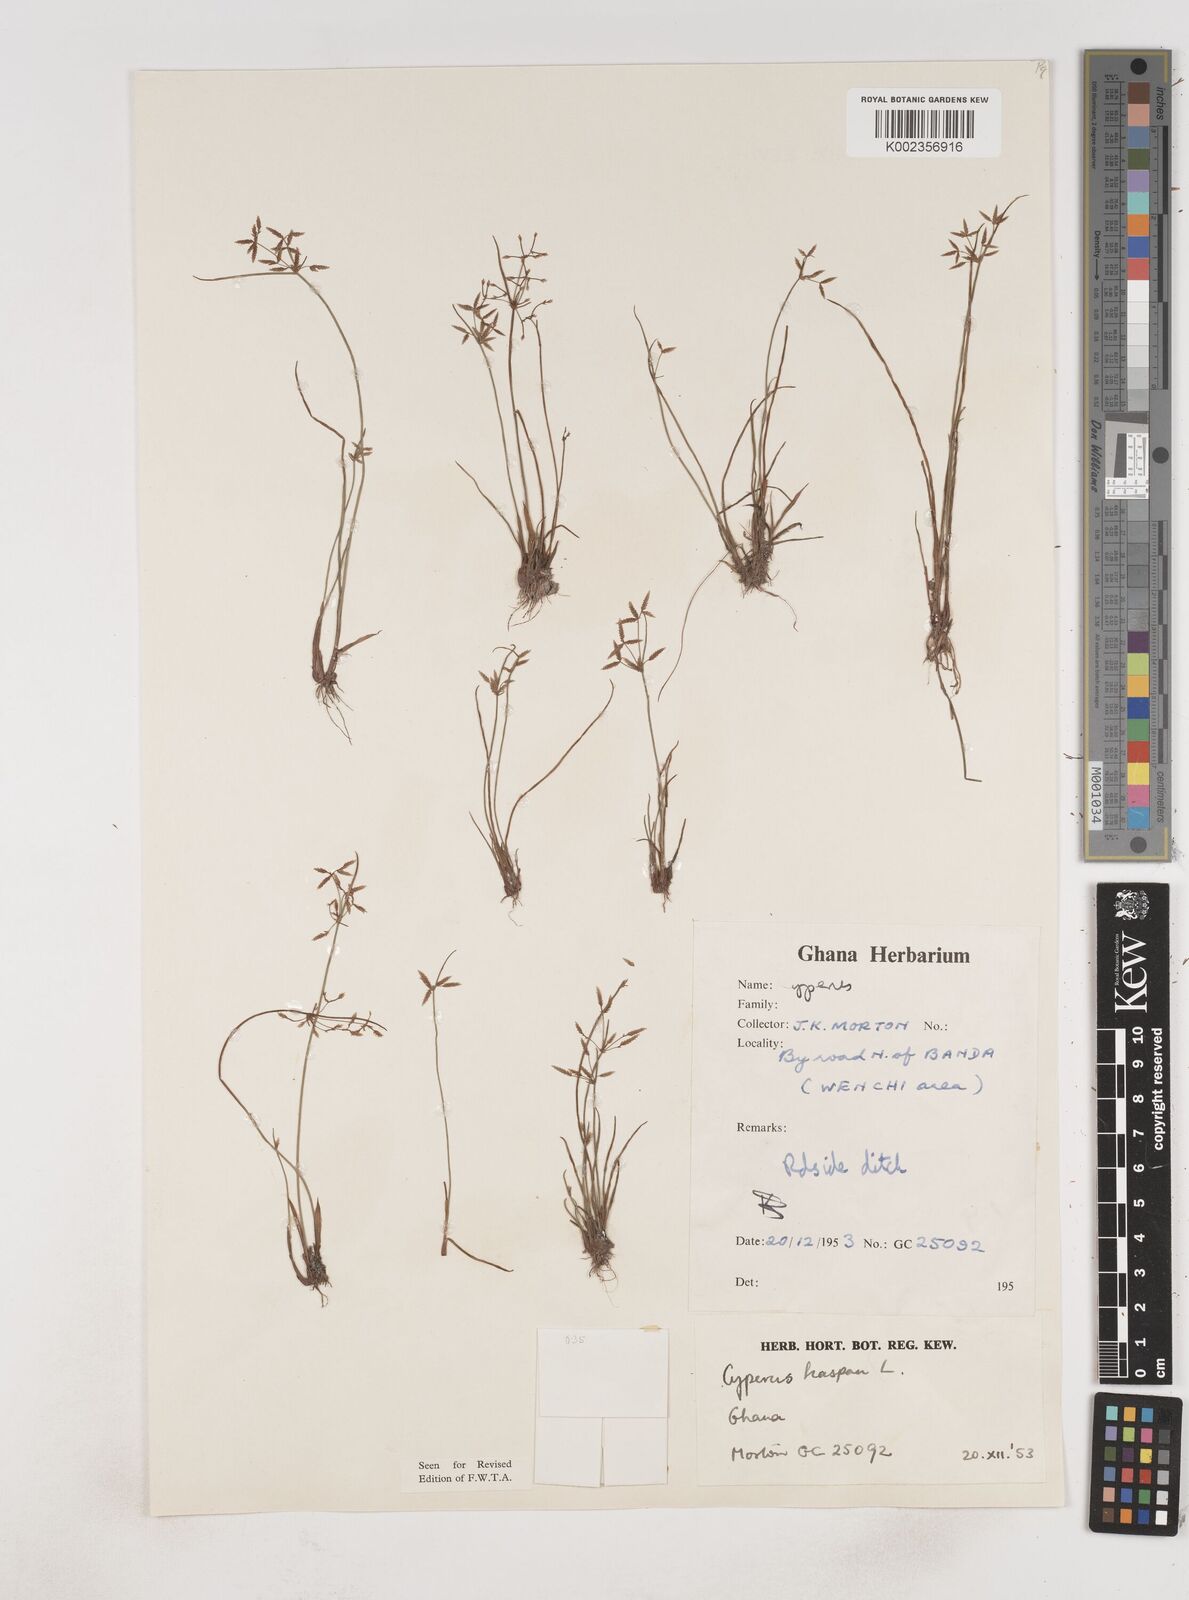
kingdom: Plantae
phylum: Tracheophyta
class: Liliopsida
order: Poales
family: Cyperaceae
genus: Cyperus
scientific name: Cyperus haspan
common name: Haspan flatsedge
